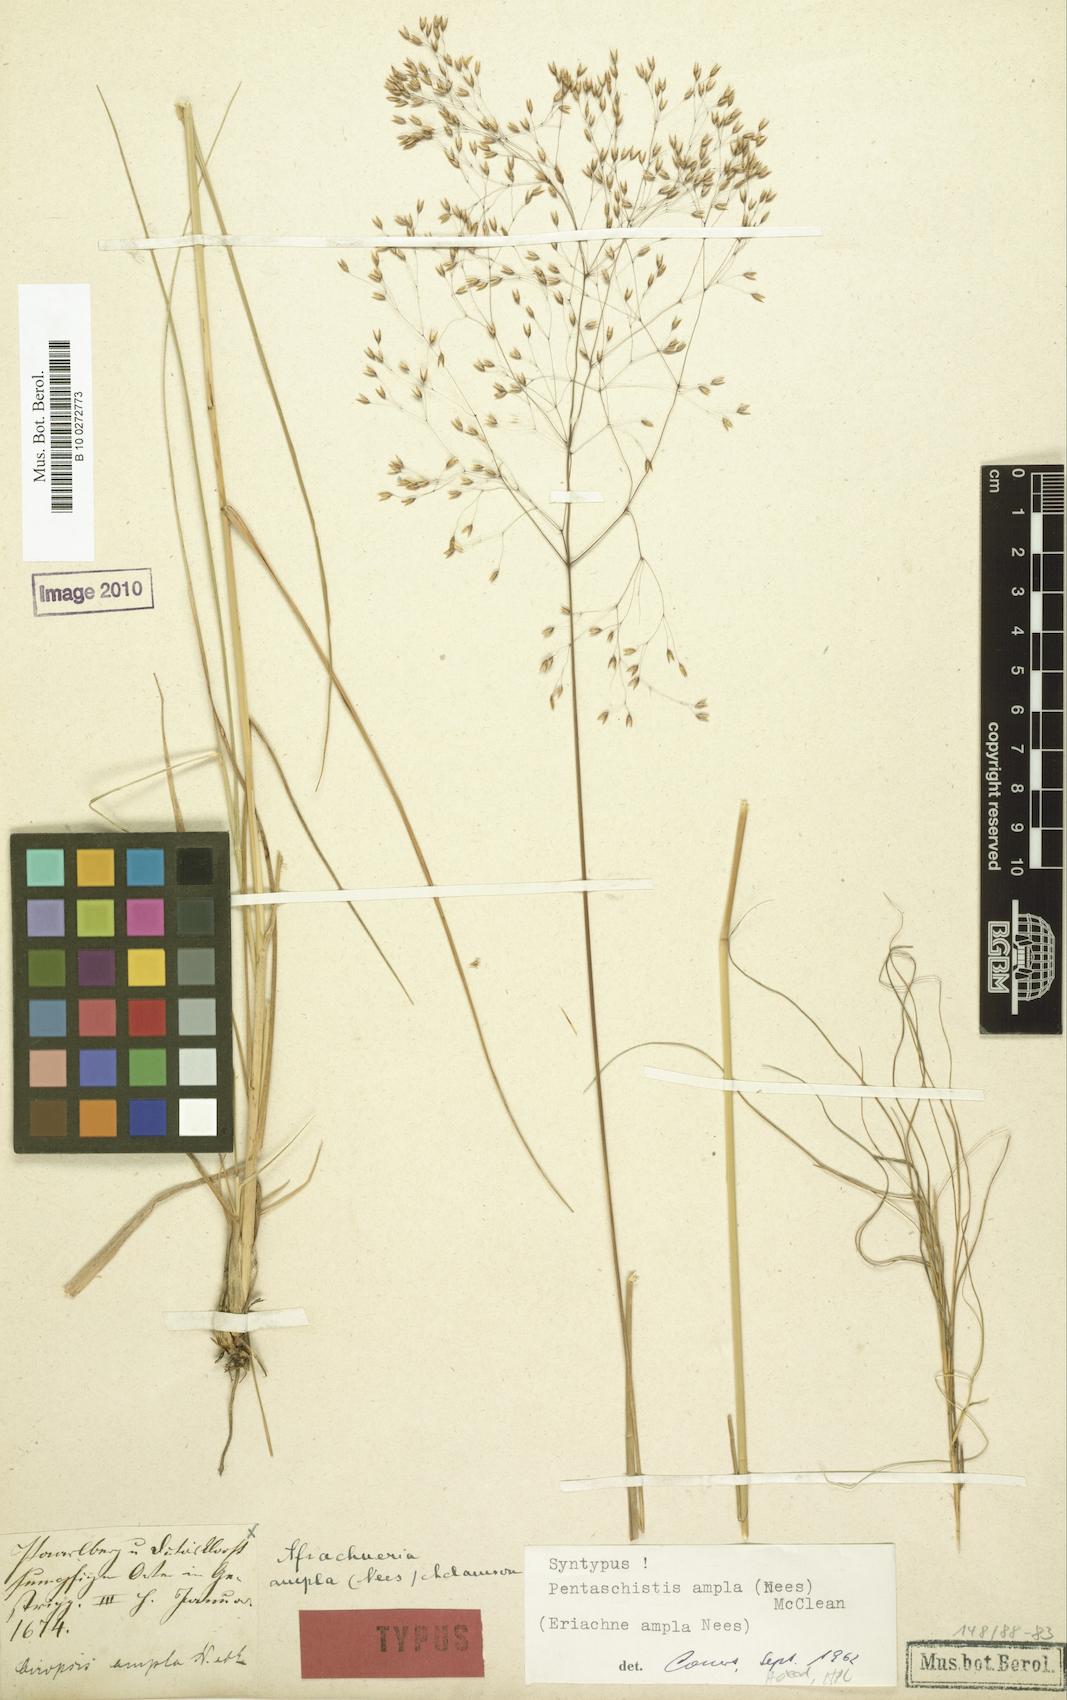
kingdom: Plantae
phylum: Tracheophyta
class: Liliopsida
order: Poales
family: Poaceae
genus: Pentameris
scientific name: Pentameris ampla
